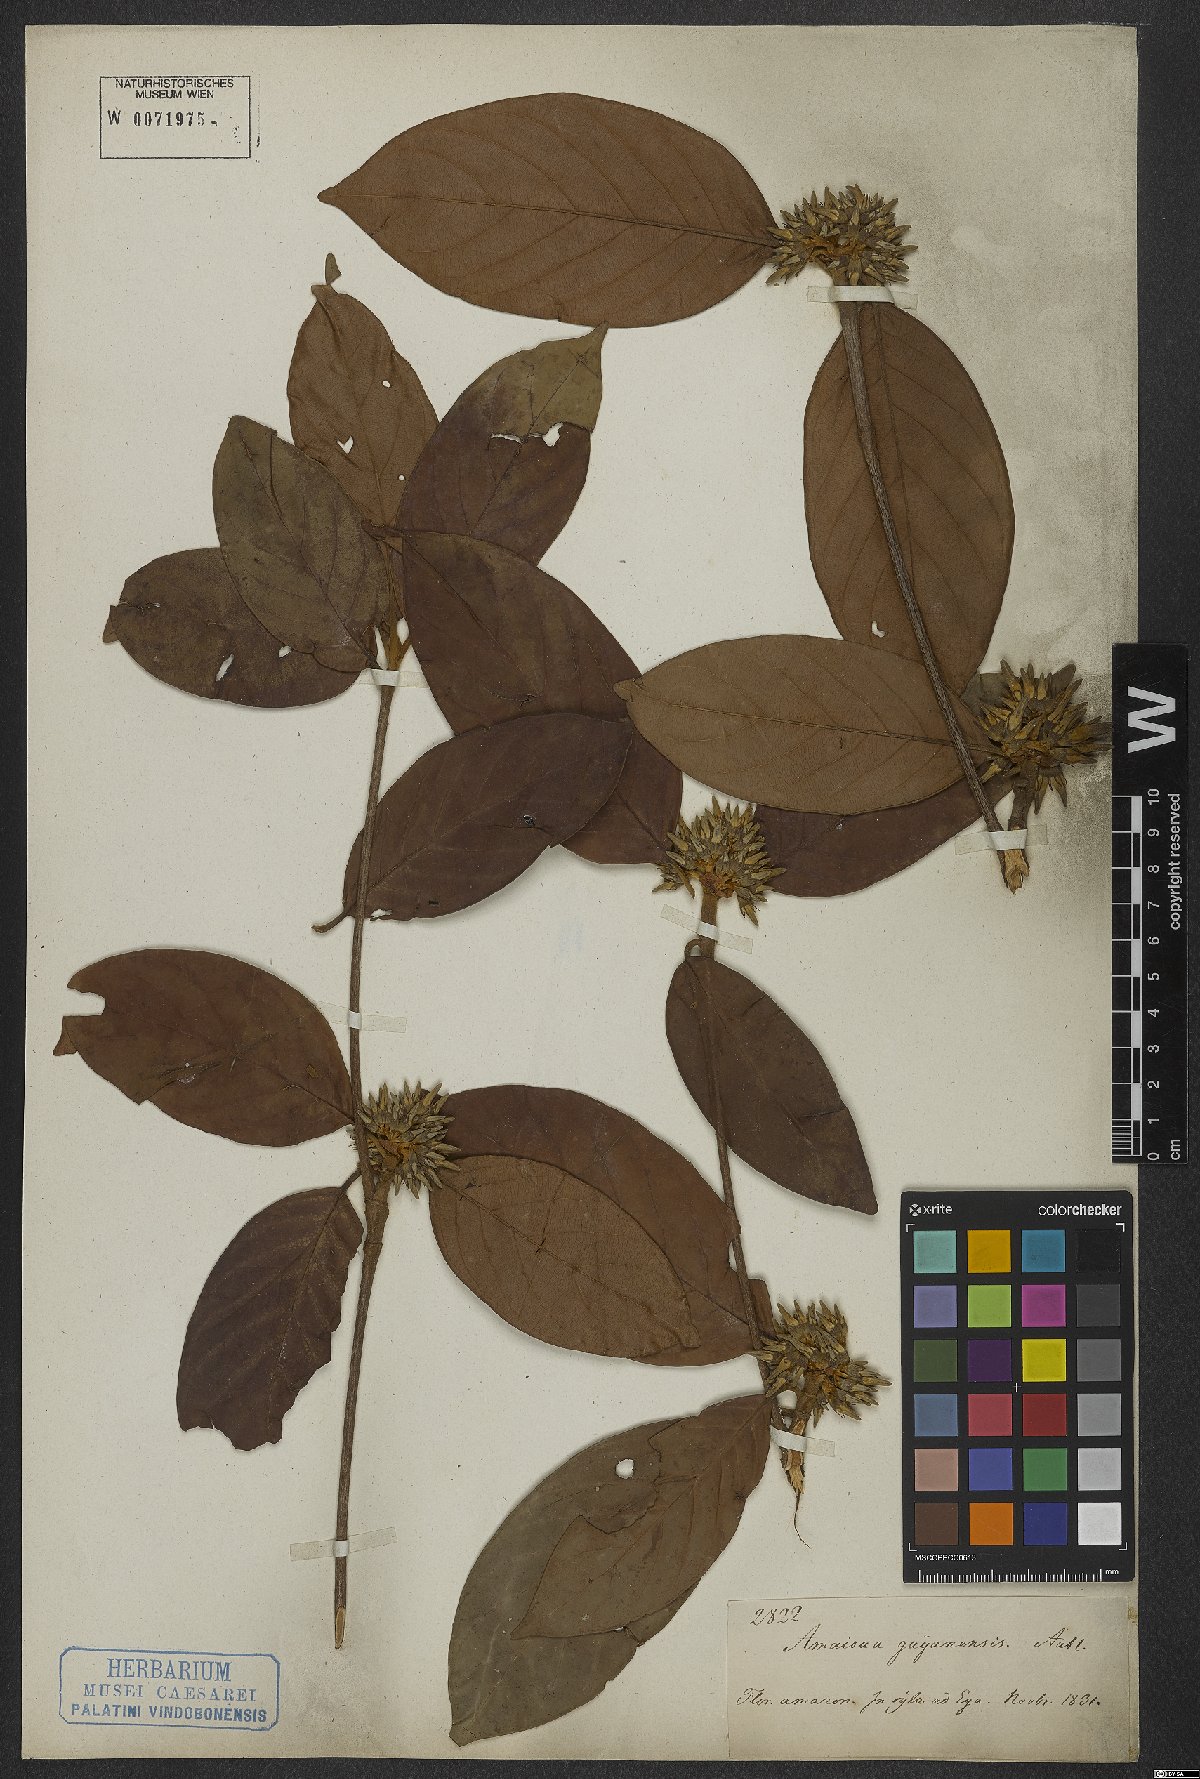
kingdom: Plantae
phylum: Tracheophyta
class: Magnoliopsida
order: Gentianales
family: Rubiaceae
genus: Amaioua
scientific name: Amaioua guianensis
